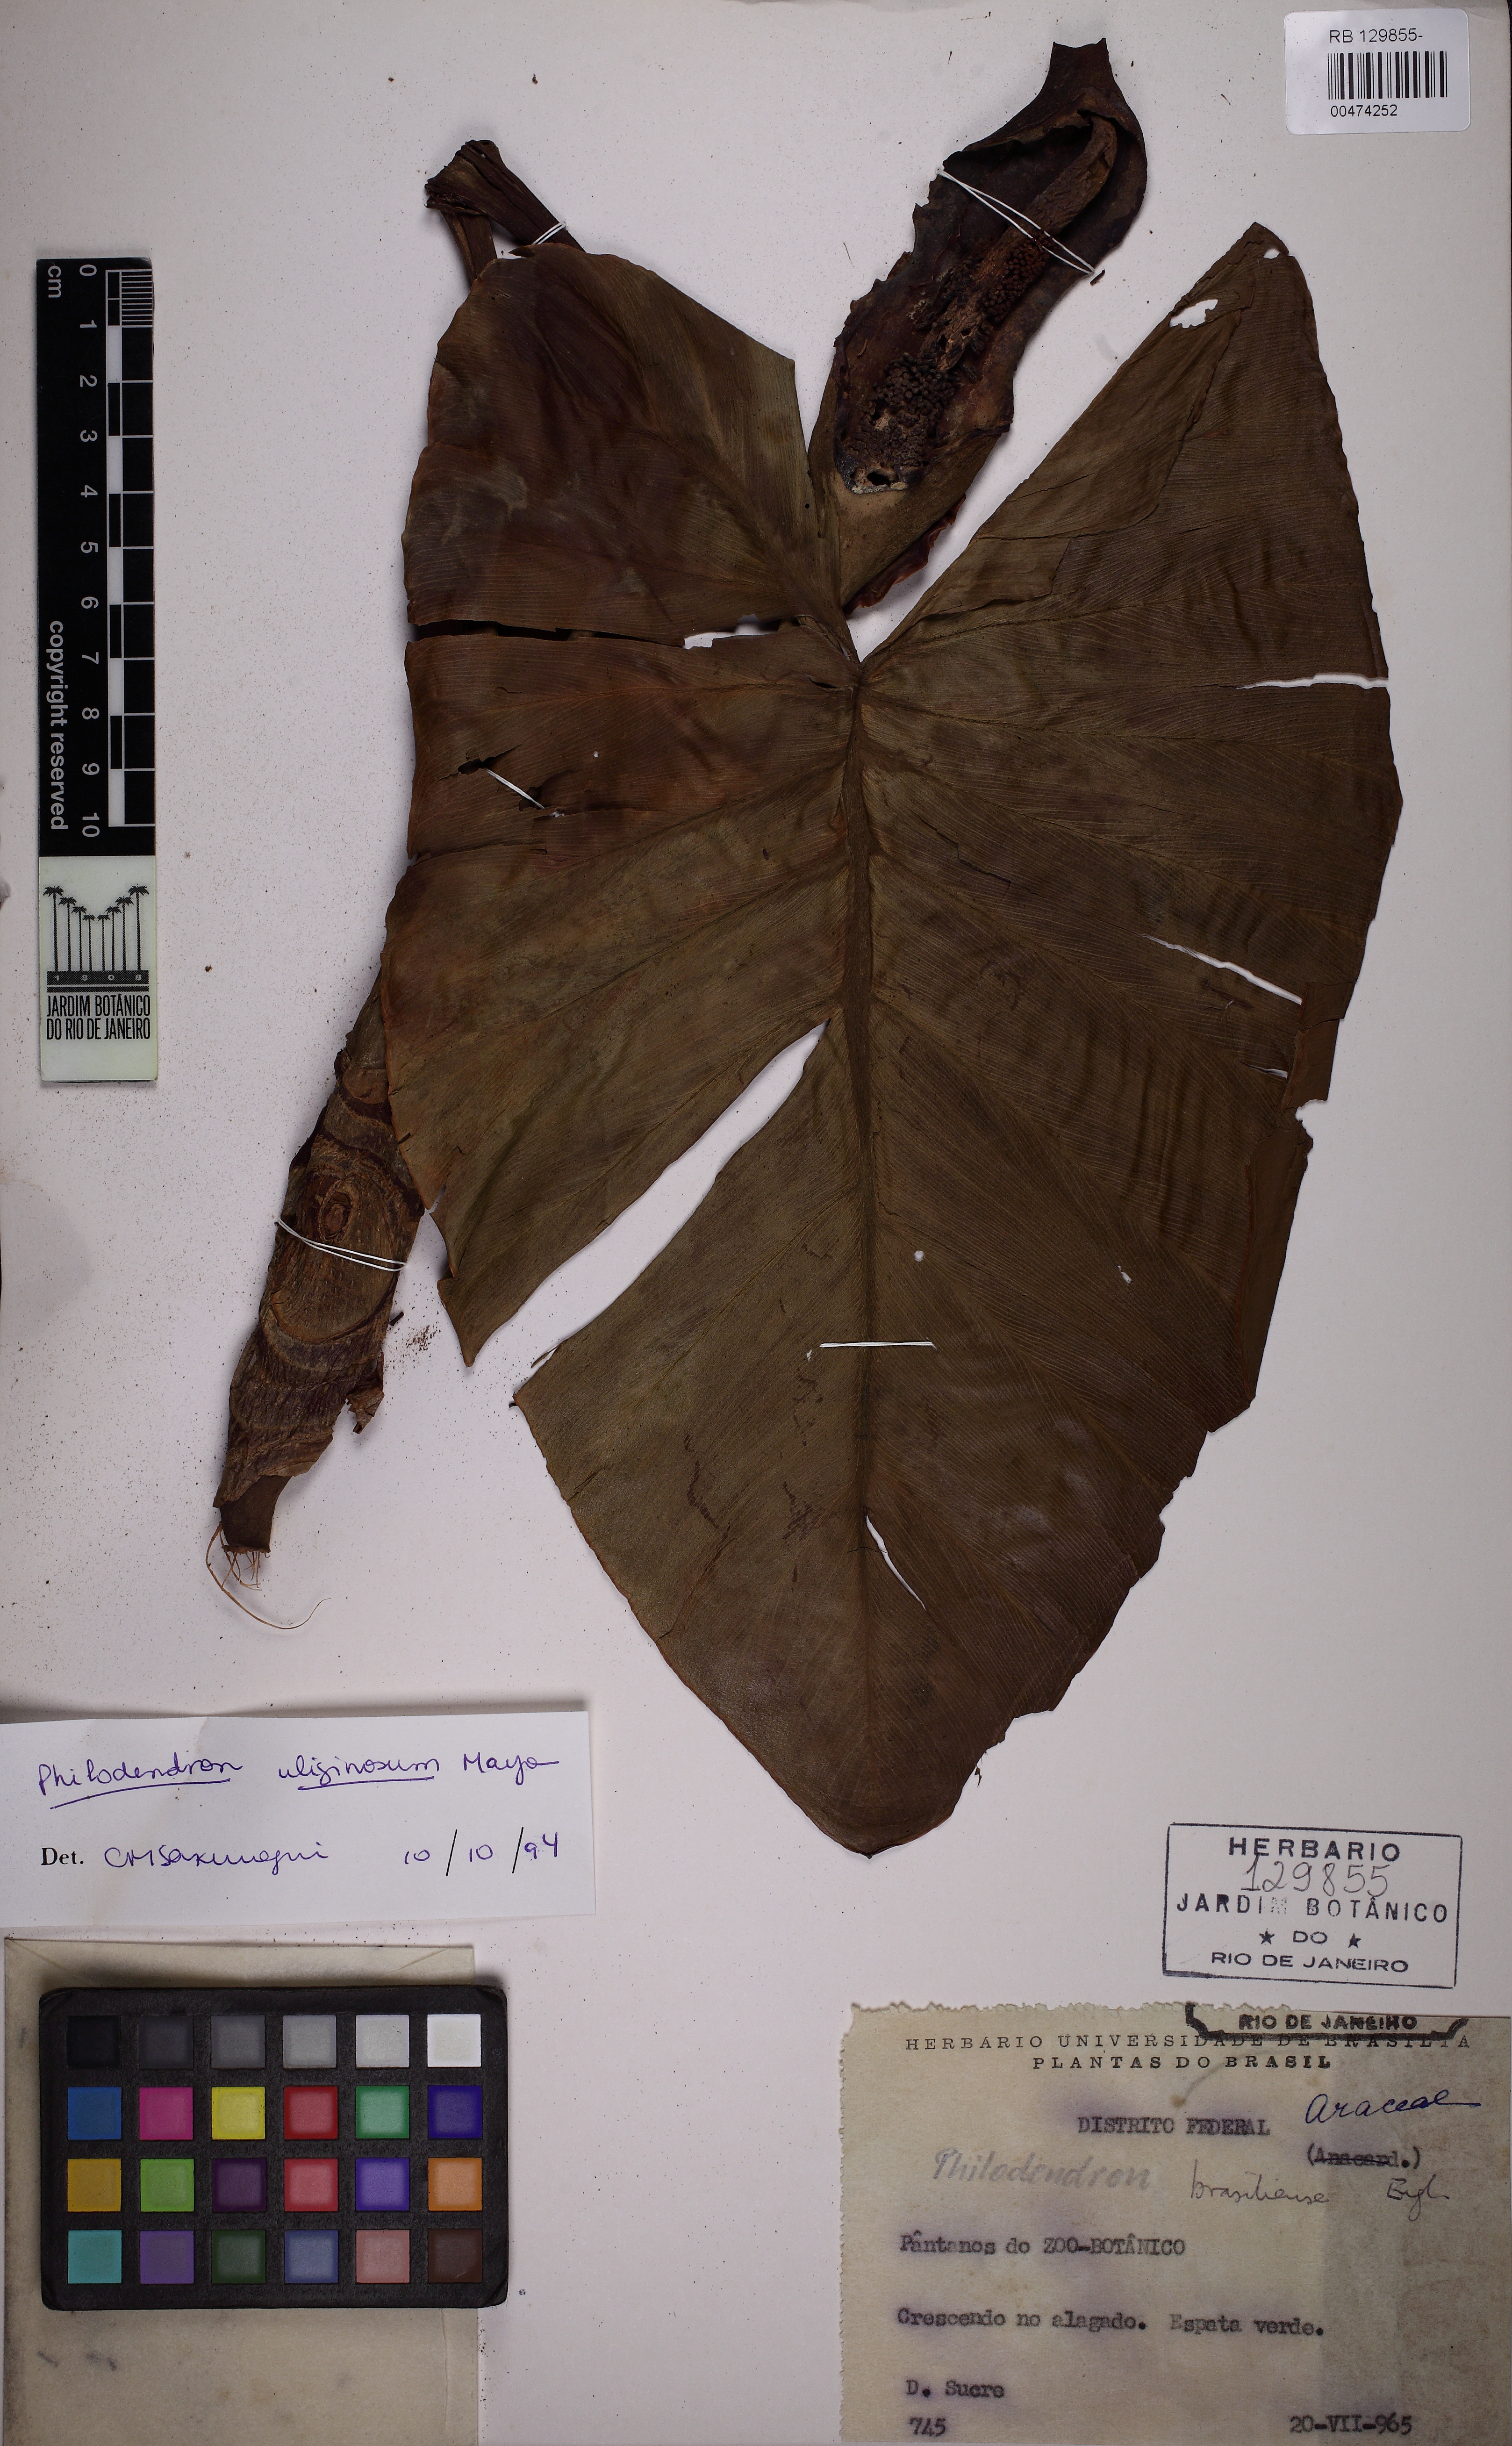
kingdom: Plantae
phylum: Tracheophyta
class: Liliopsida
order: Alismatales
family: Araceae
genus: Thaumatophyllum
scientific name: Thaumatophyllum uliginosum
